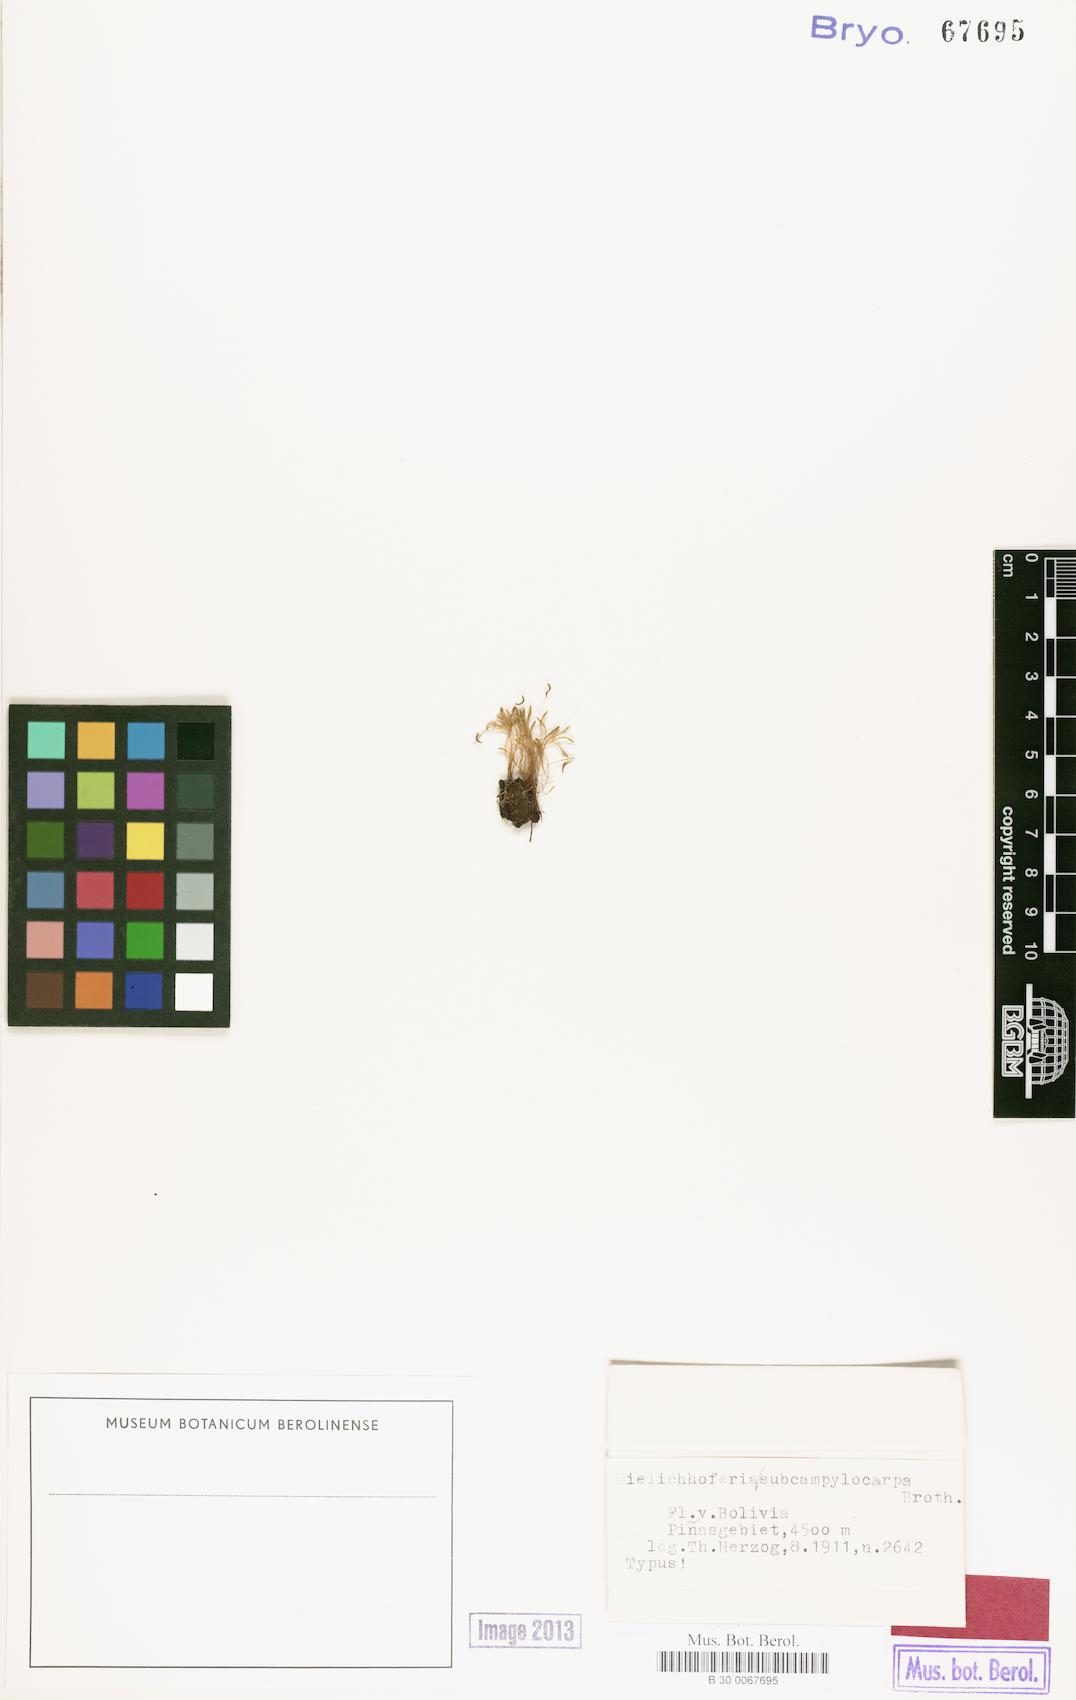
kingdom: Plantae
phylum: Bryophyta
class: Bryopsida
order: Bryales
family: Mniaceae
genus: Schizymenium
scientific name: Schizymenium campylocarpum
